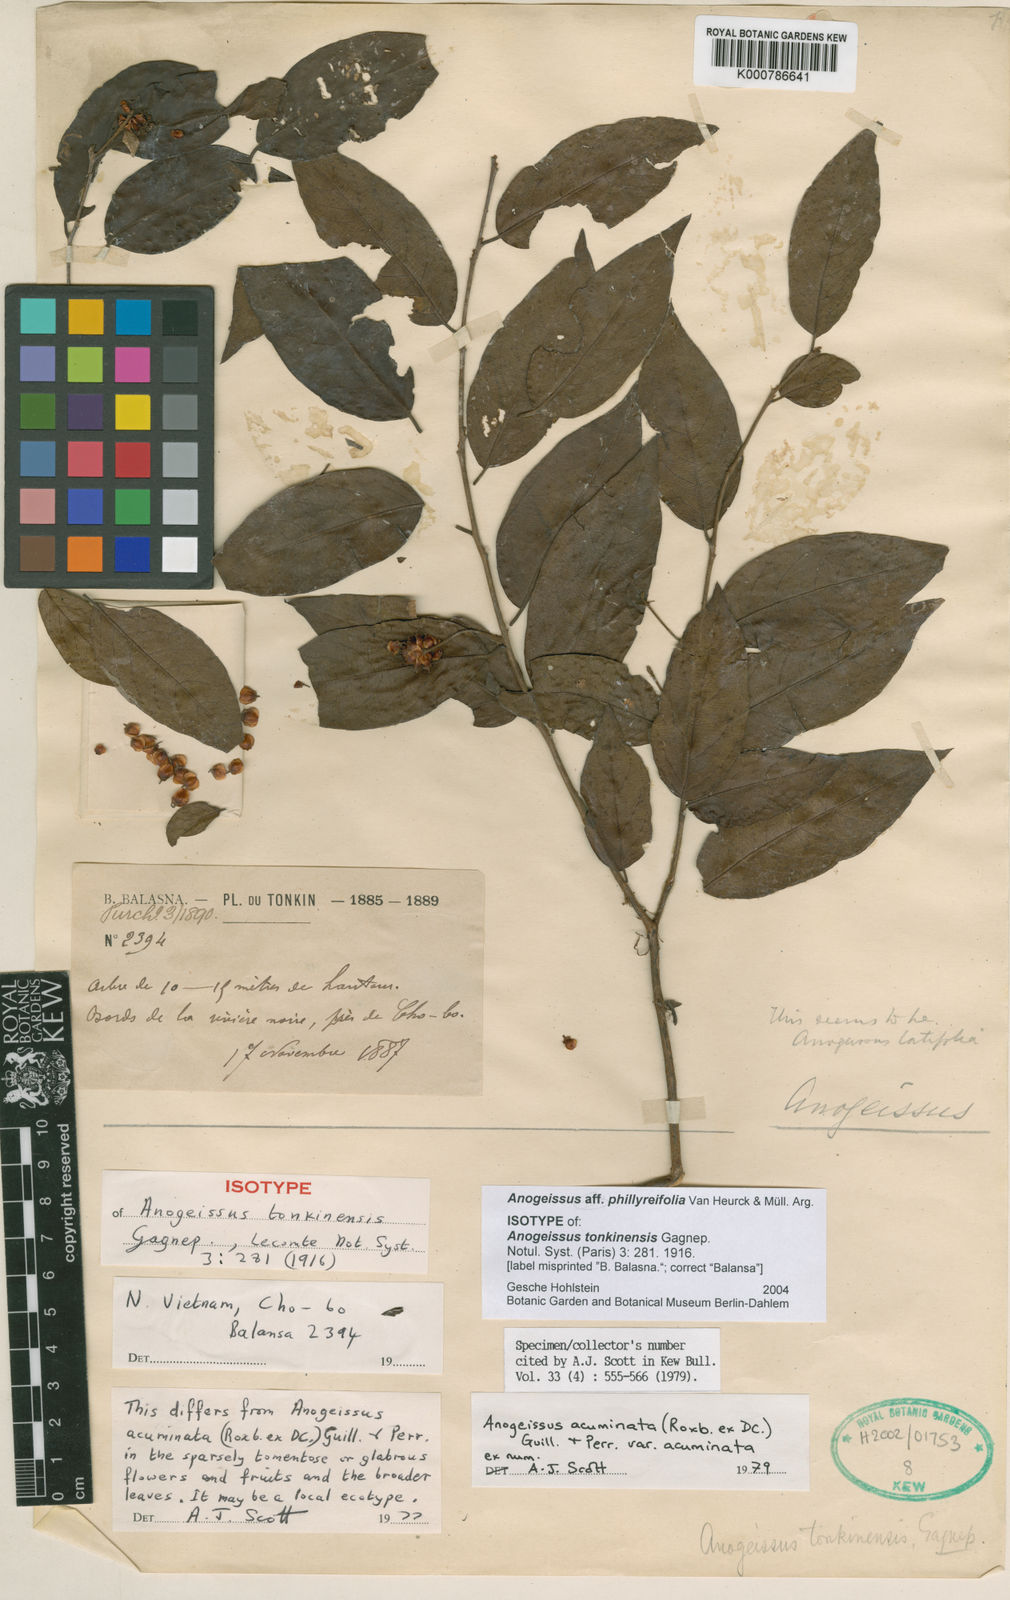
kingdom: Plantae
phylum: Tracheophyta
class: Magnoliopsida
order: Myrtales
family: Combretaceae
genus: Anogeissus
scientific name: Anogeissus
